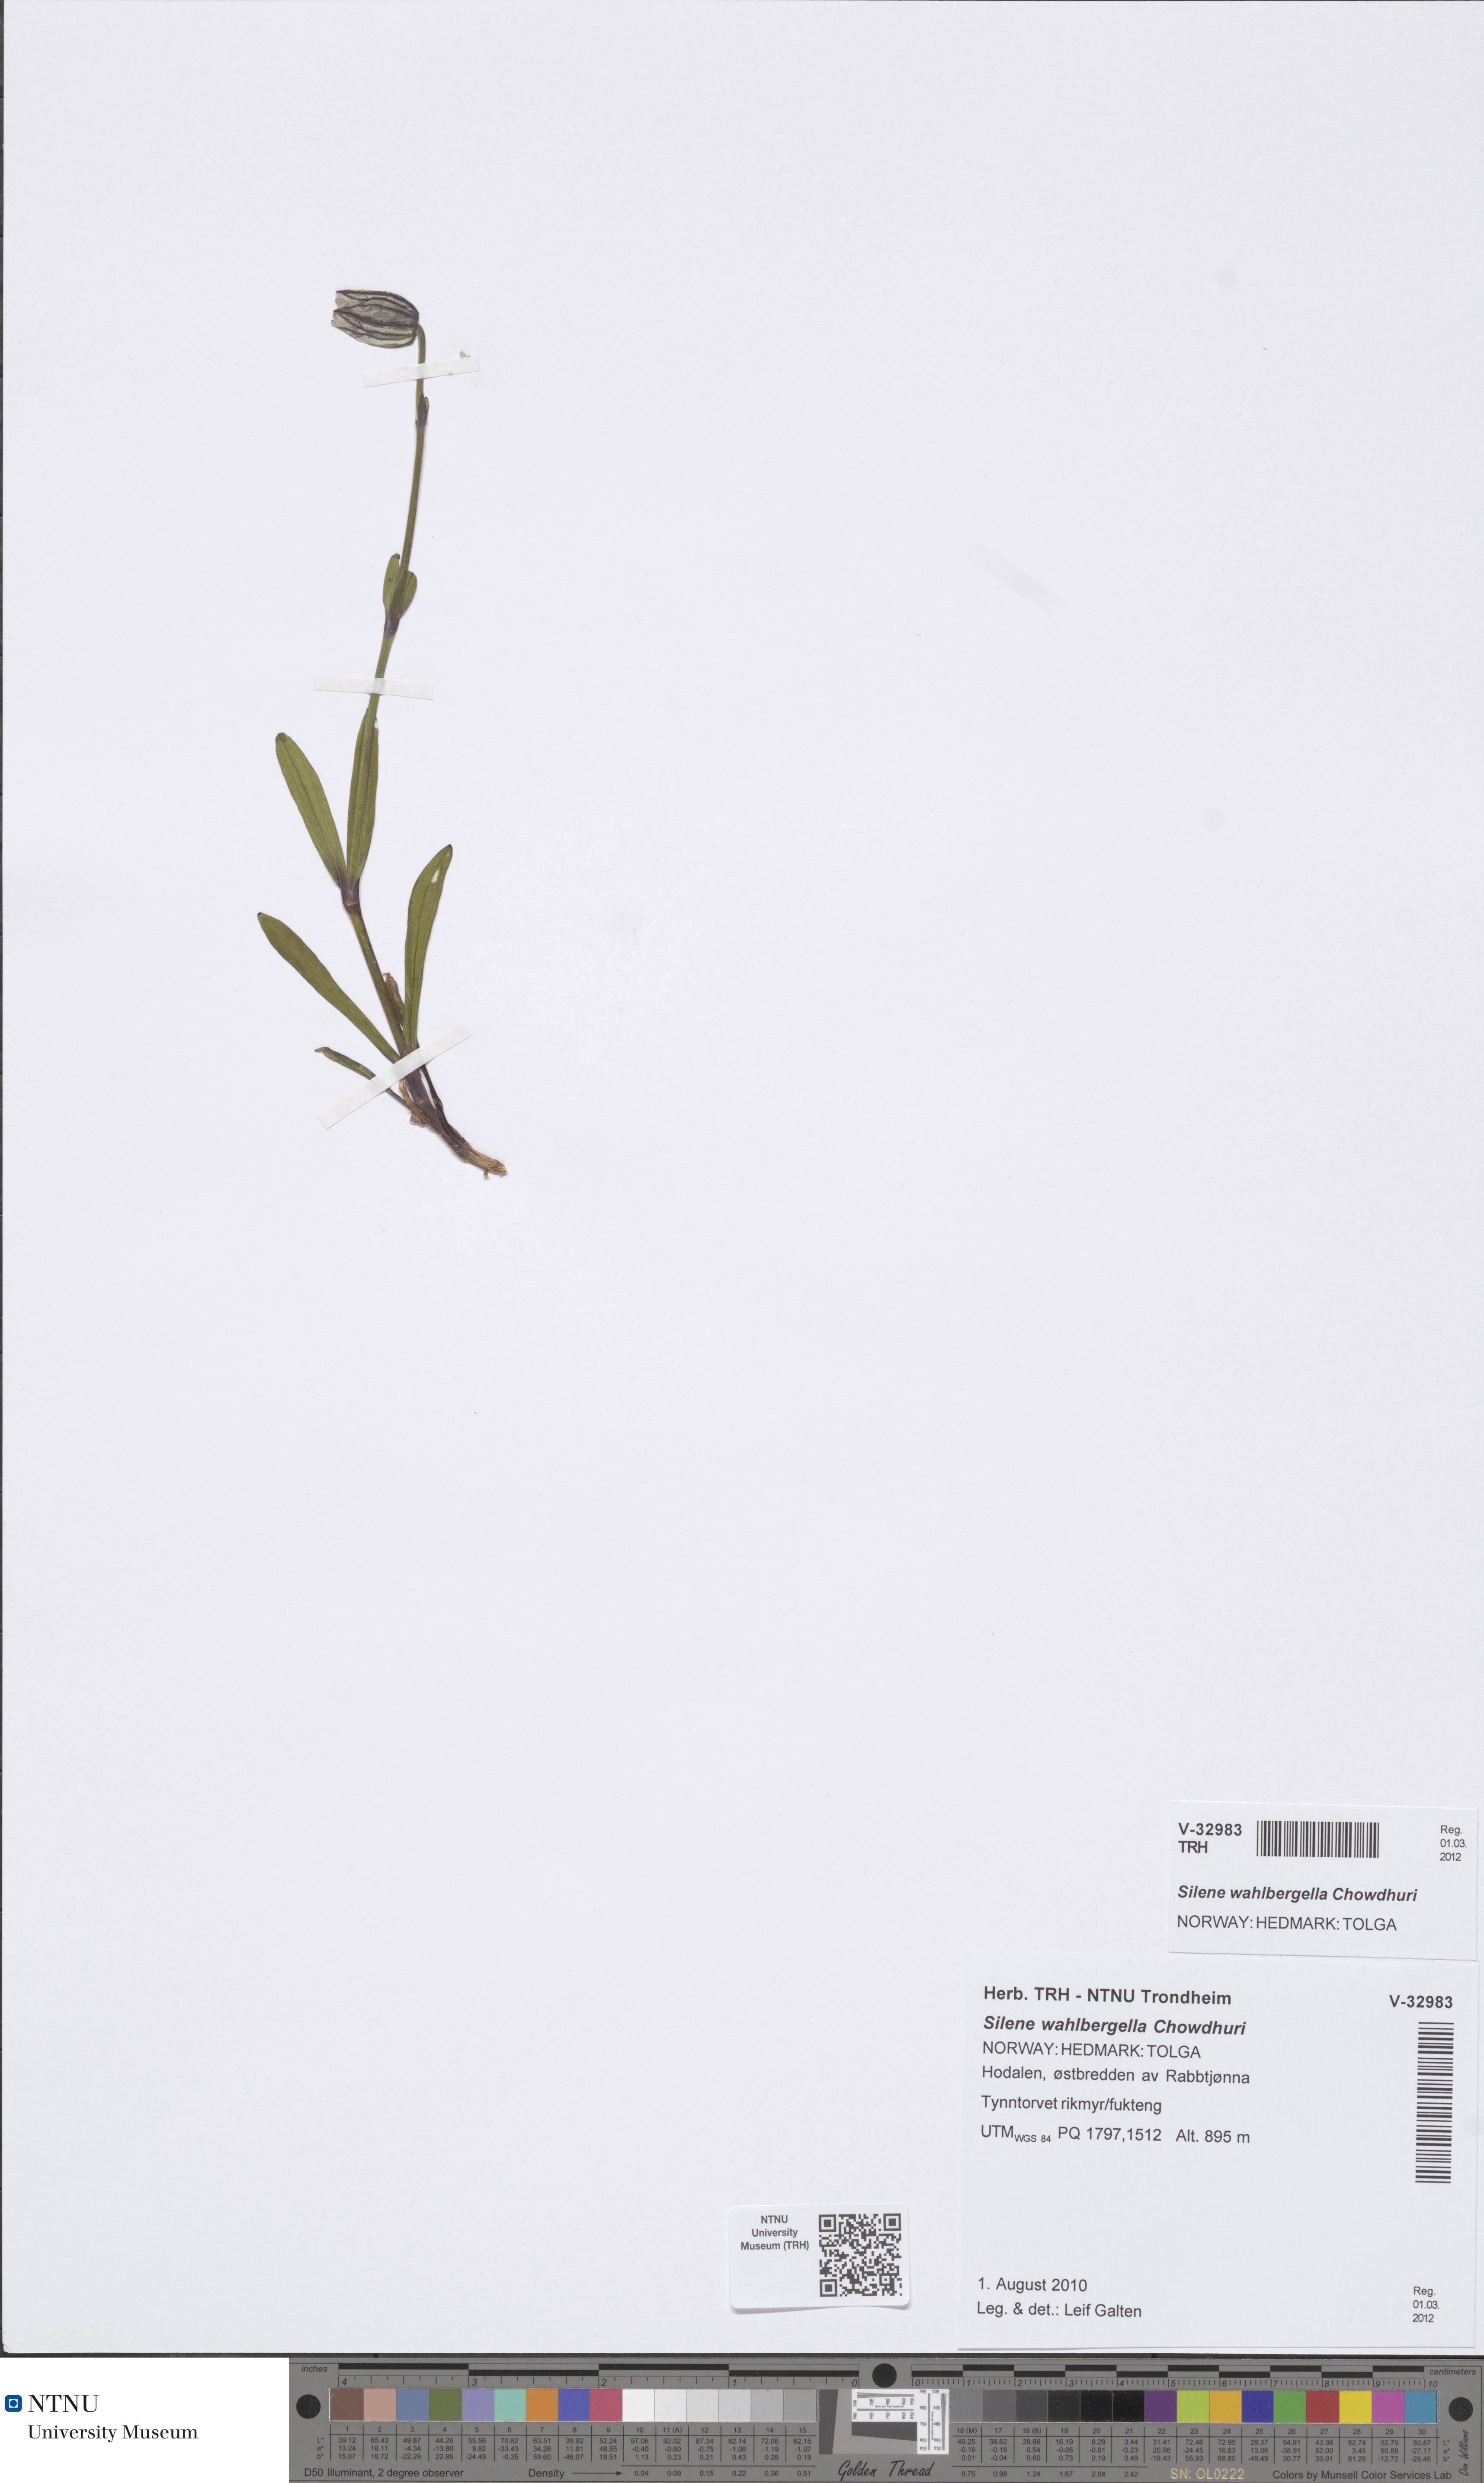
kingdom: Plantae
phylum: Tracheophyta
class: Magnoliopsida
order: Caryophyllales
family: Caryophyllaceae
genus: Silene
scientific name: Silene wahlbergella
